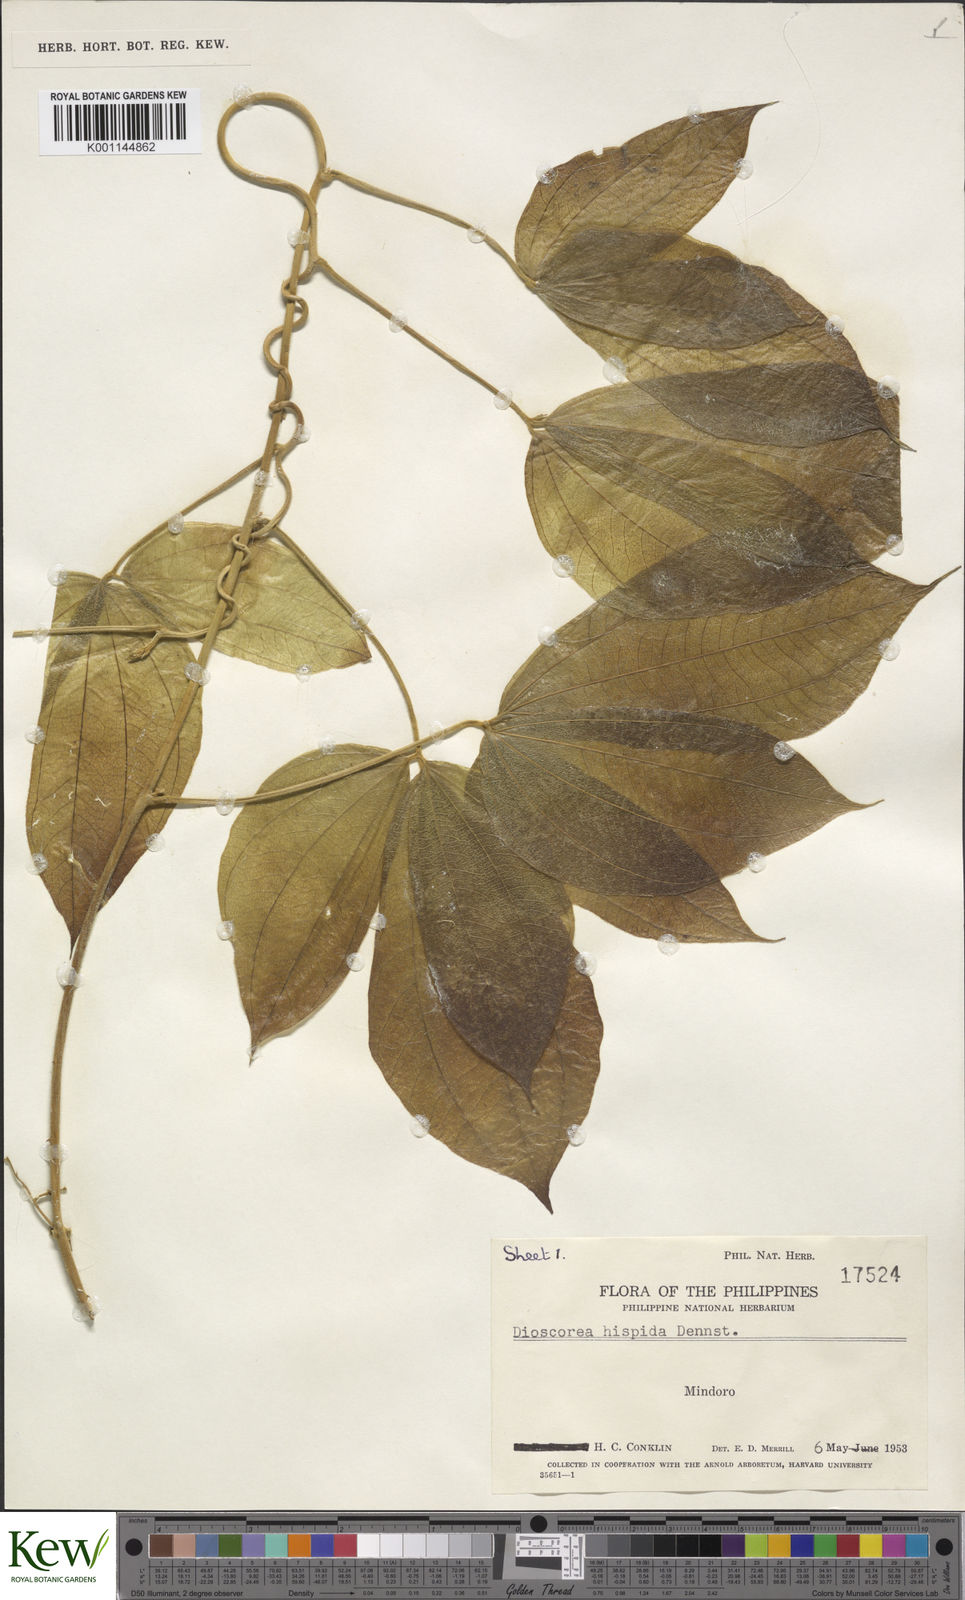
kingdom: Plantae
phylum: Tracheophyta
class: Liliopsida
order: Dioscoreales
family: Dioscoreaceae
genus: Dioscorea
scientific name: Dioscorea hispida
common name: Asiatic bitter yam
